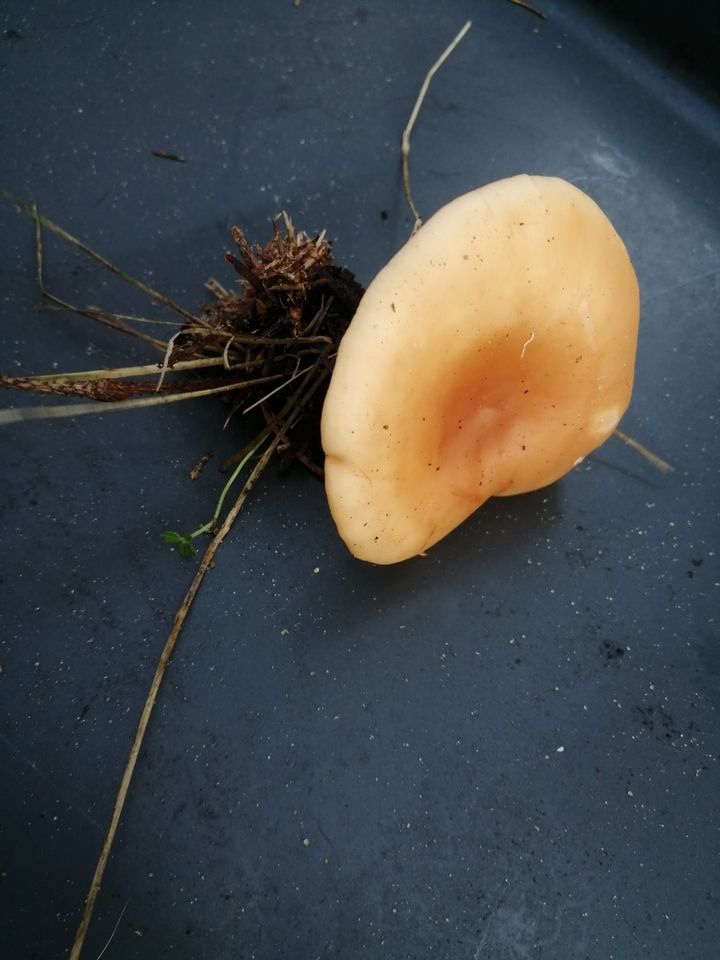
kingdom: Fungi
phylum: Basidiomycota
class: Agaricomycetes
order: Agaricales
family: Tricholomataceae
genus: Paralepista
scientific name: Paralepista flaccida
